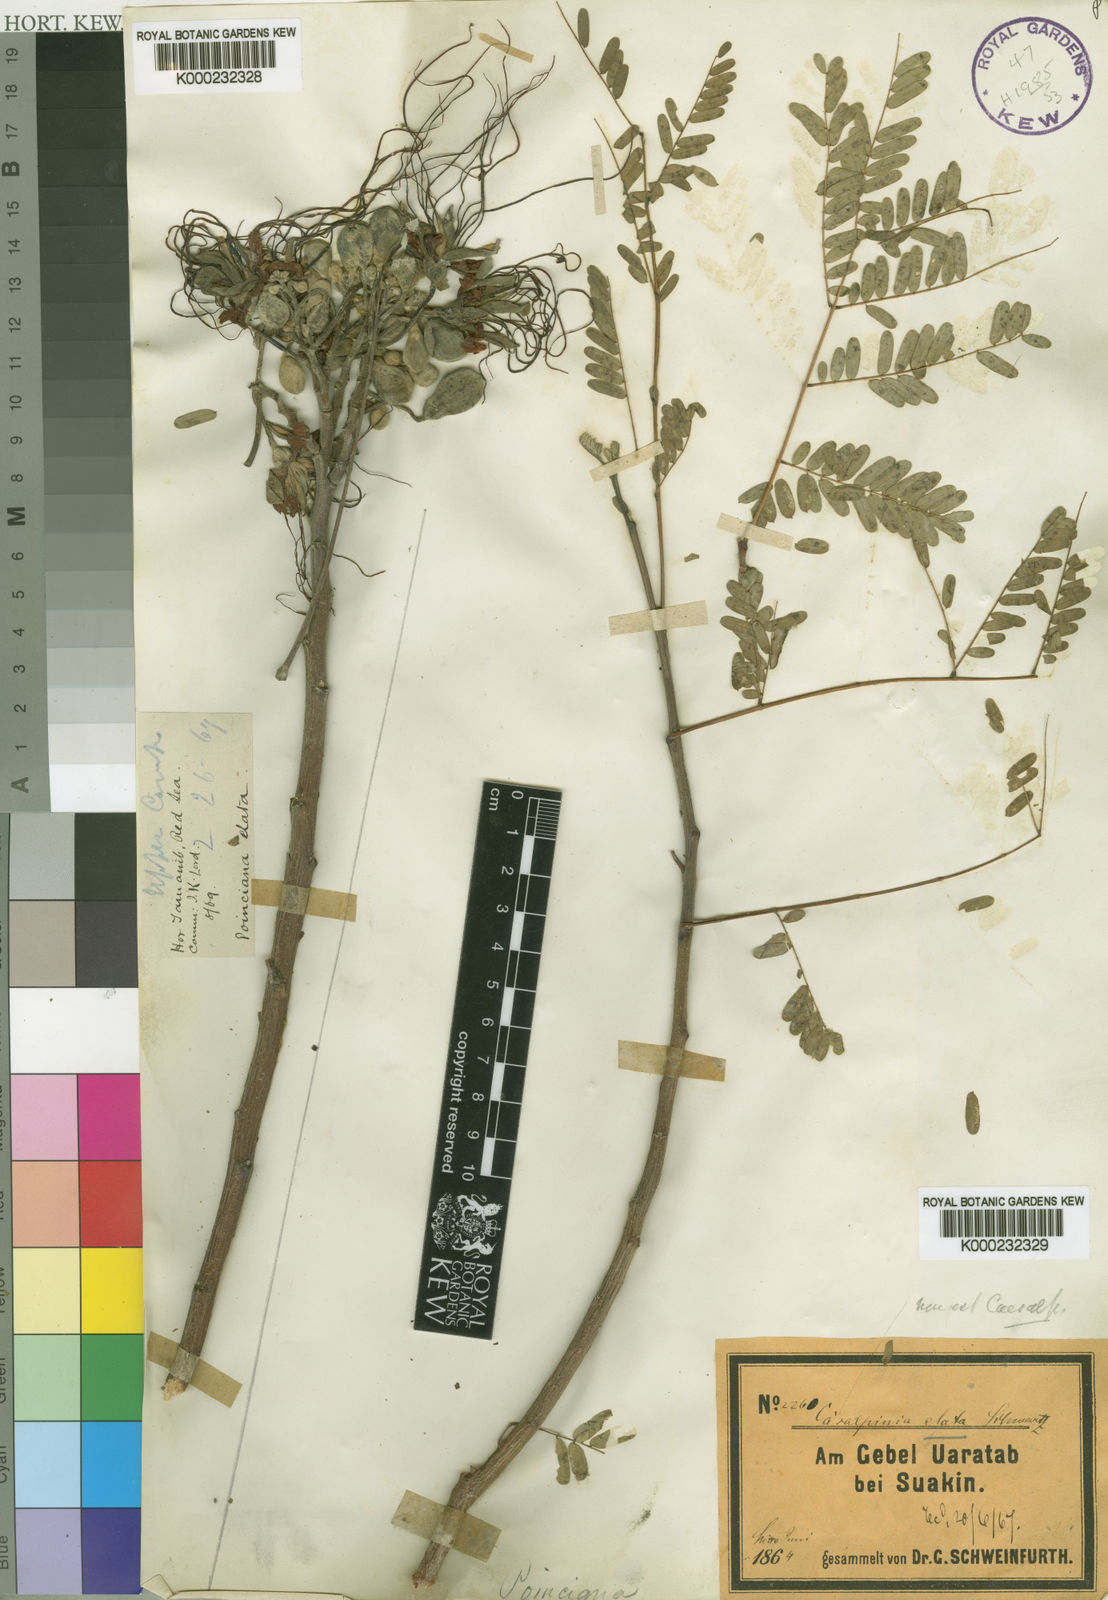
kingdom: Plantae
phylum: Tracheophyta
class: Magnoliopsida
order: Fabales
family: Fabaceae
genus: Delonix
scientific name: Delonix elata
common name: Creamy peacock flower
